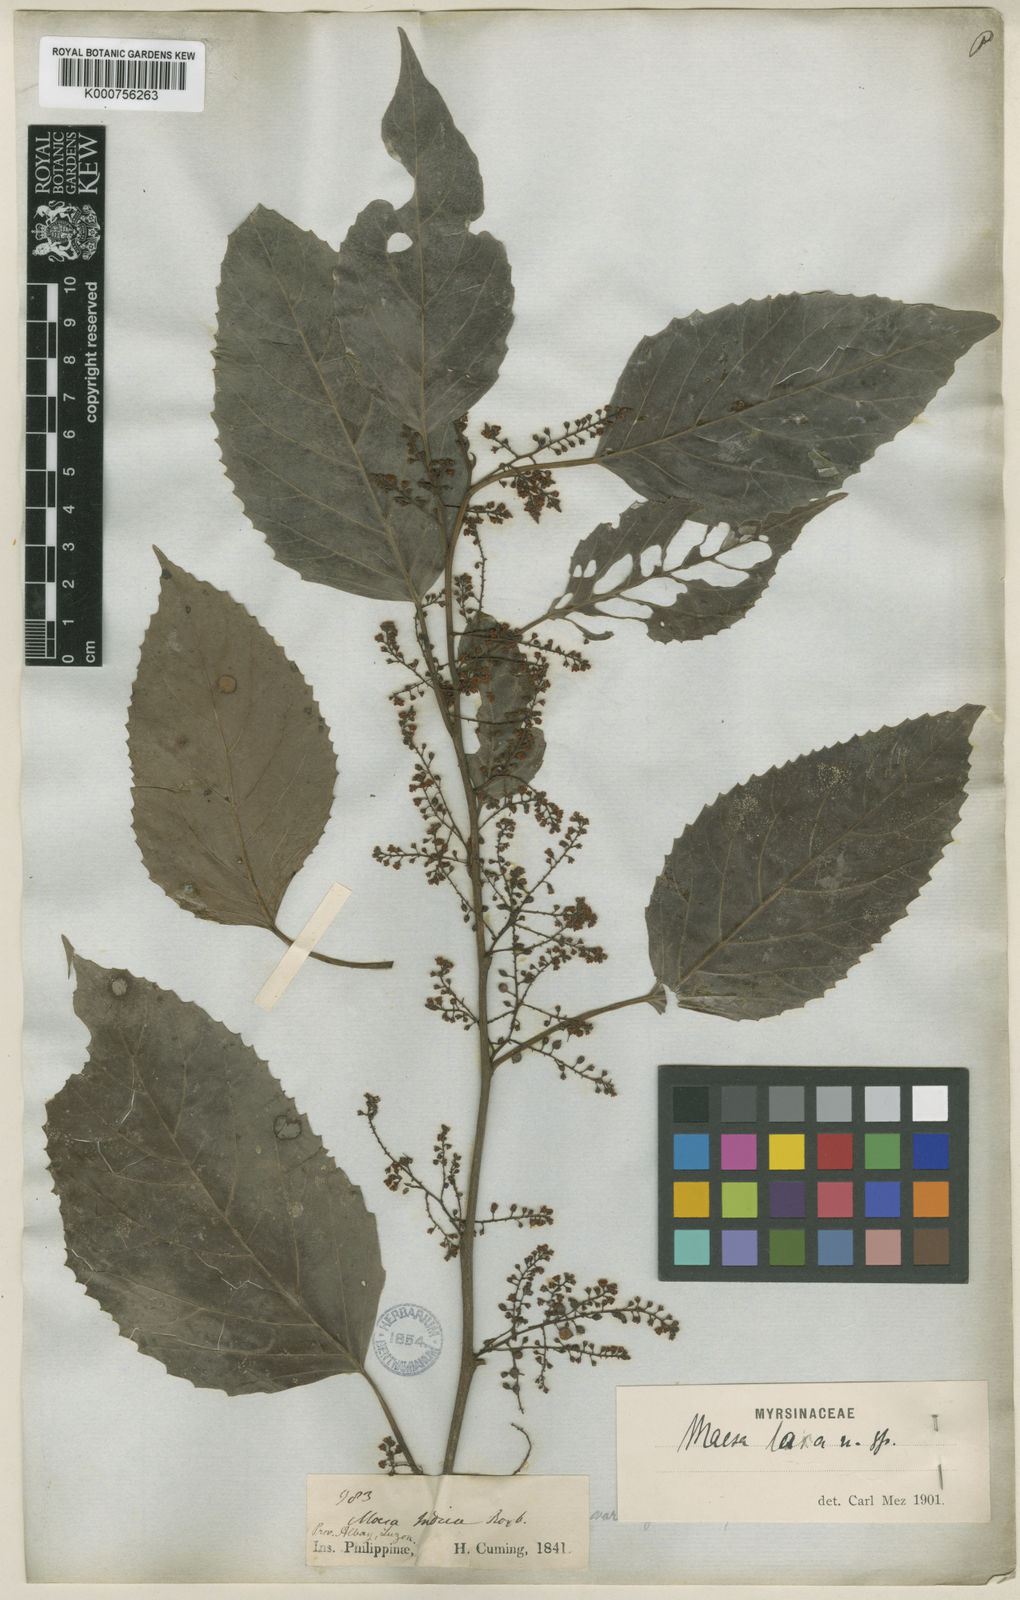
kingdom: Plantae
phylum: Tracheophyta
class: Magnoliopsida
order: Ericales
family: Primulaceae
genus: Maesa
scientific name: Maesa indica
